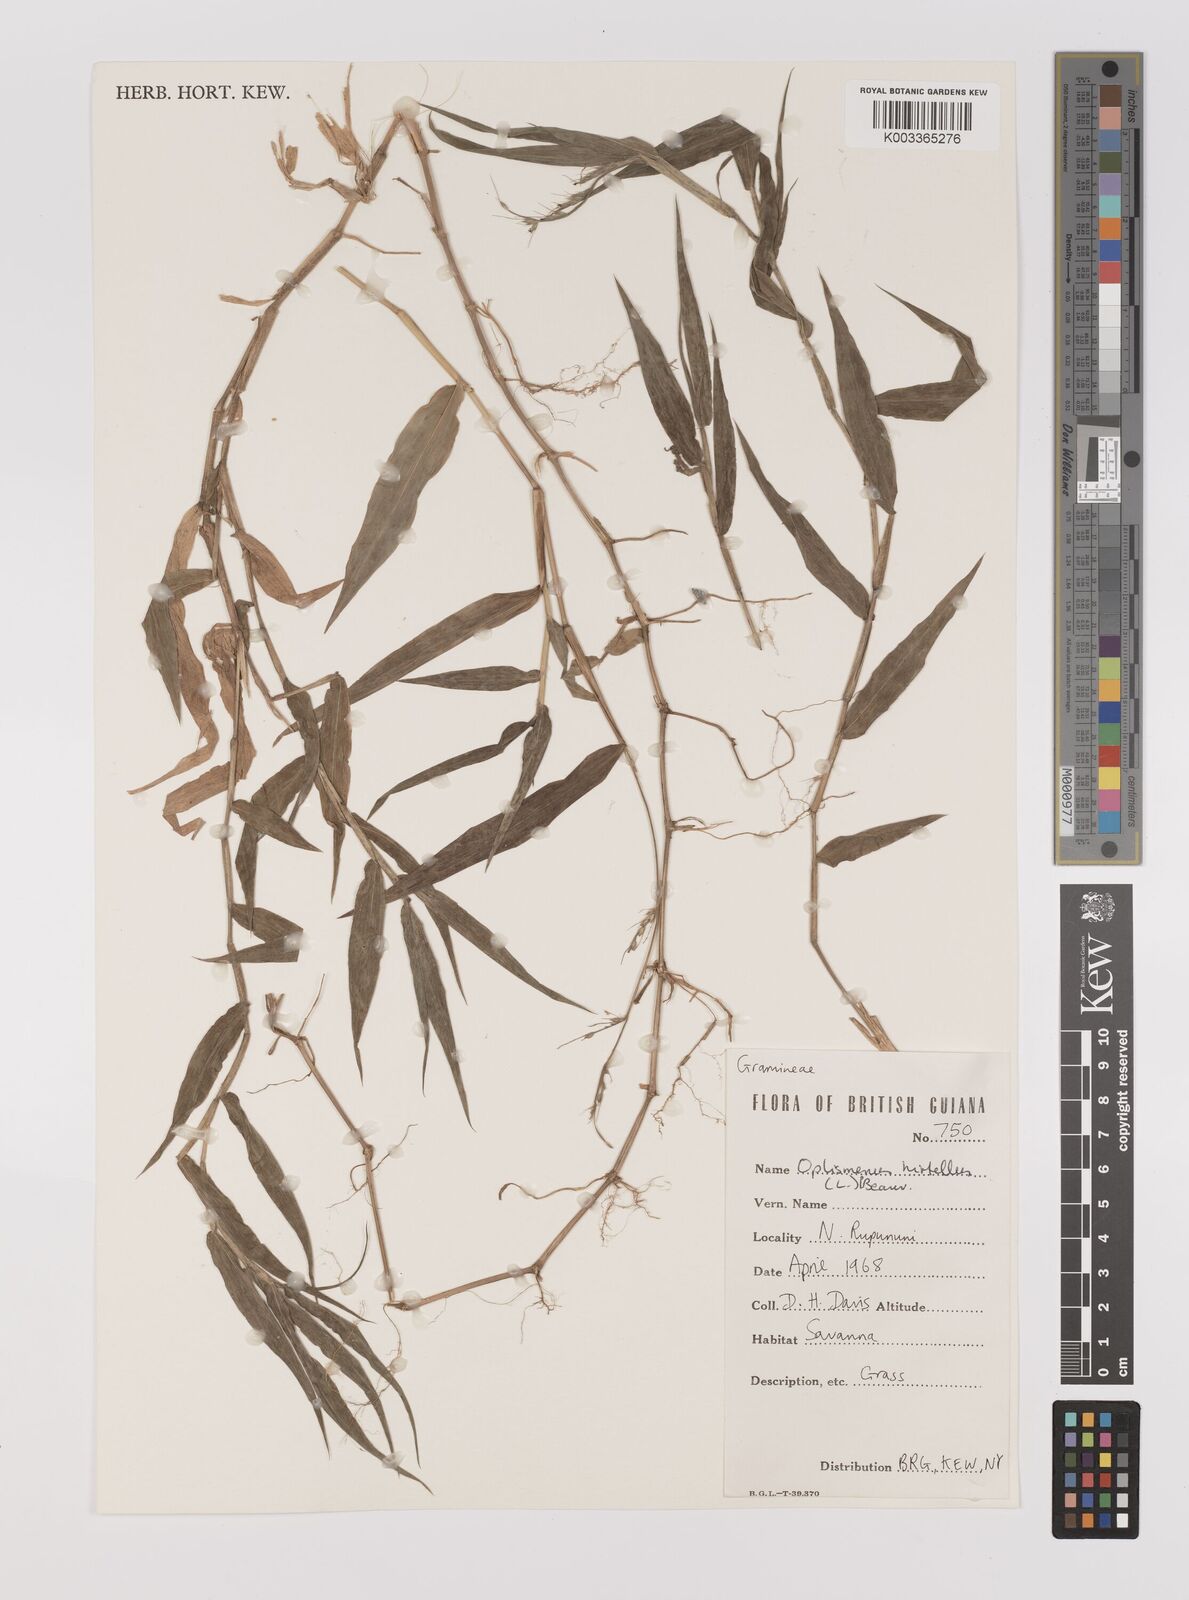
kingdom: Plantae
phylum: Tracheophyta
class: Liliopsida
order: Poales
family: Poaceae
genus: Oplismenus
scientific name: Oplismenus hirtellus
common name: Basketgrass
